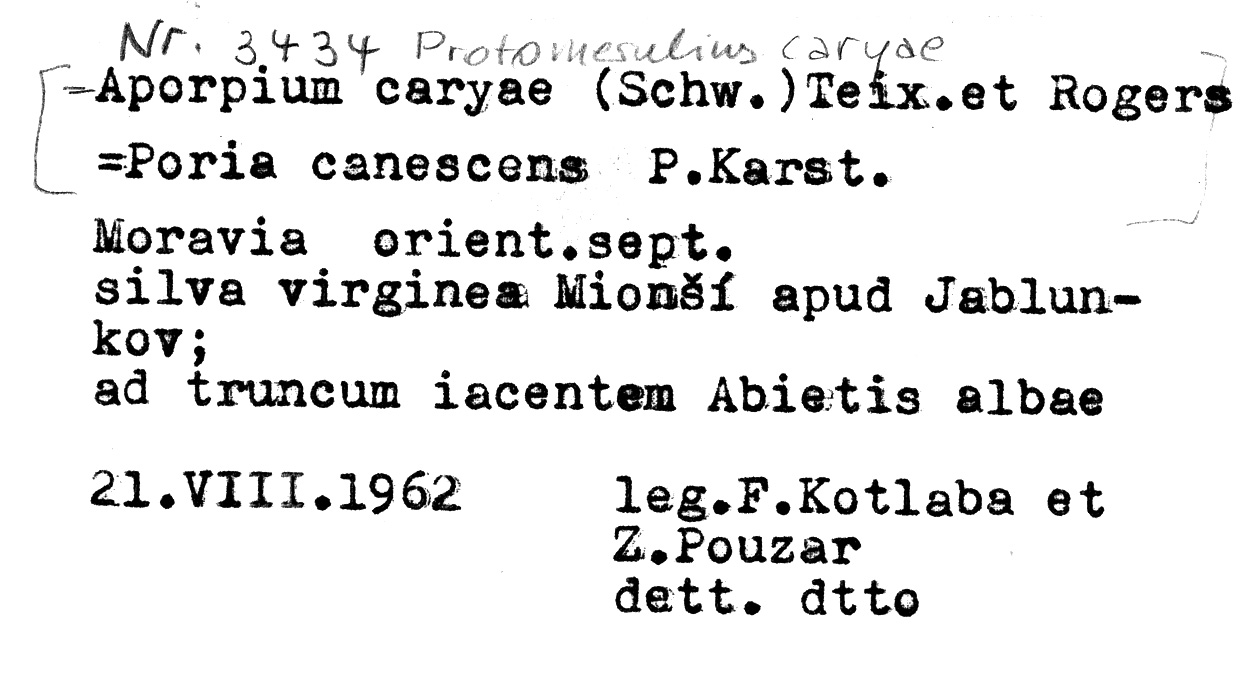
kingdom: Fungi
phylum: Basidiomycota
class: Agaricomycetes
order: Auriculariales
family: Auriculariaceae
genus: Elmerina
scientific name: Elmerina caryae
